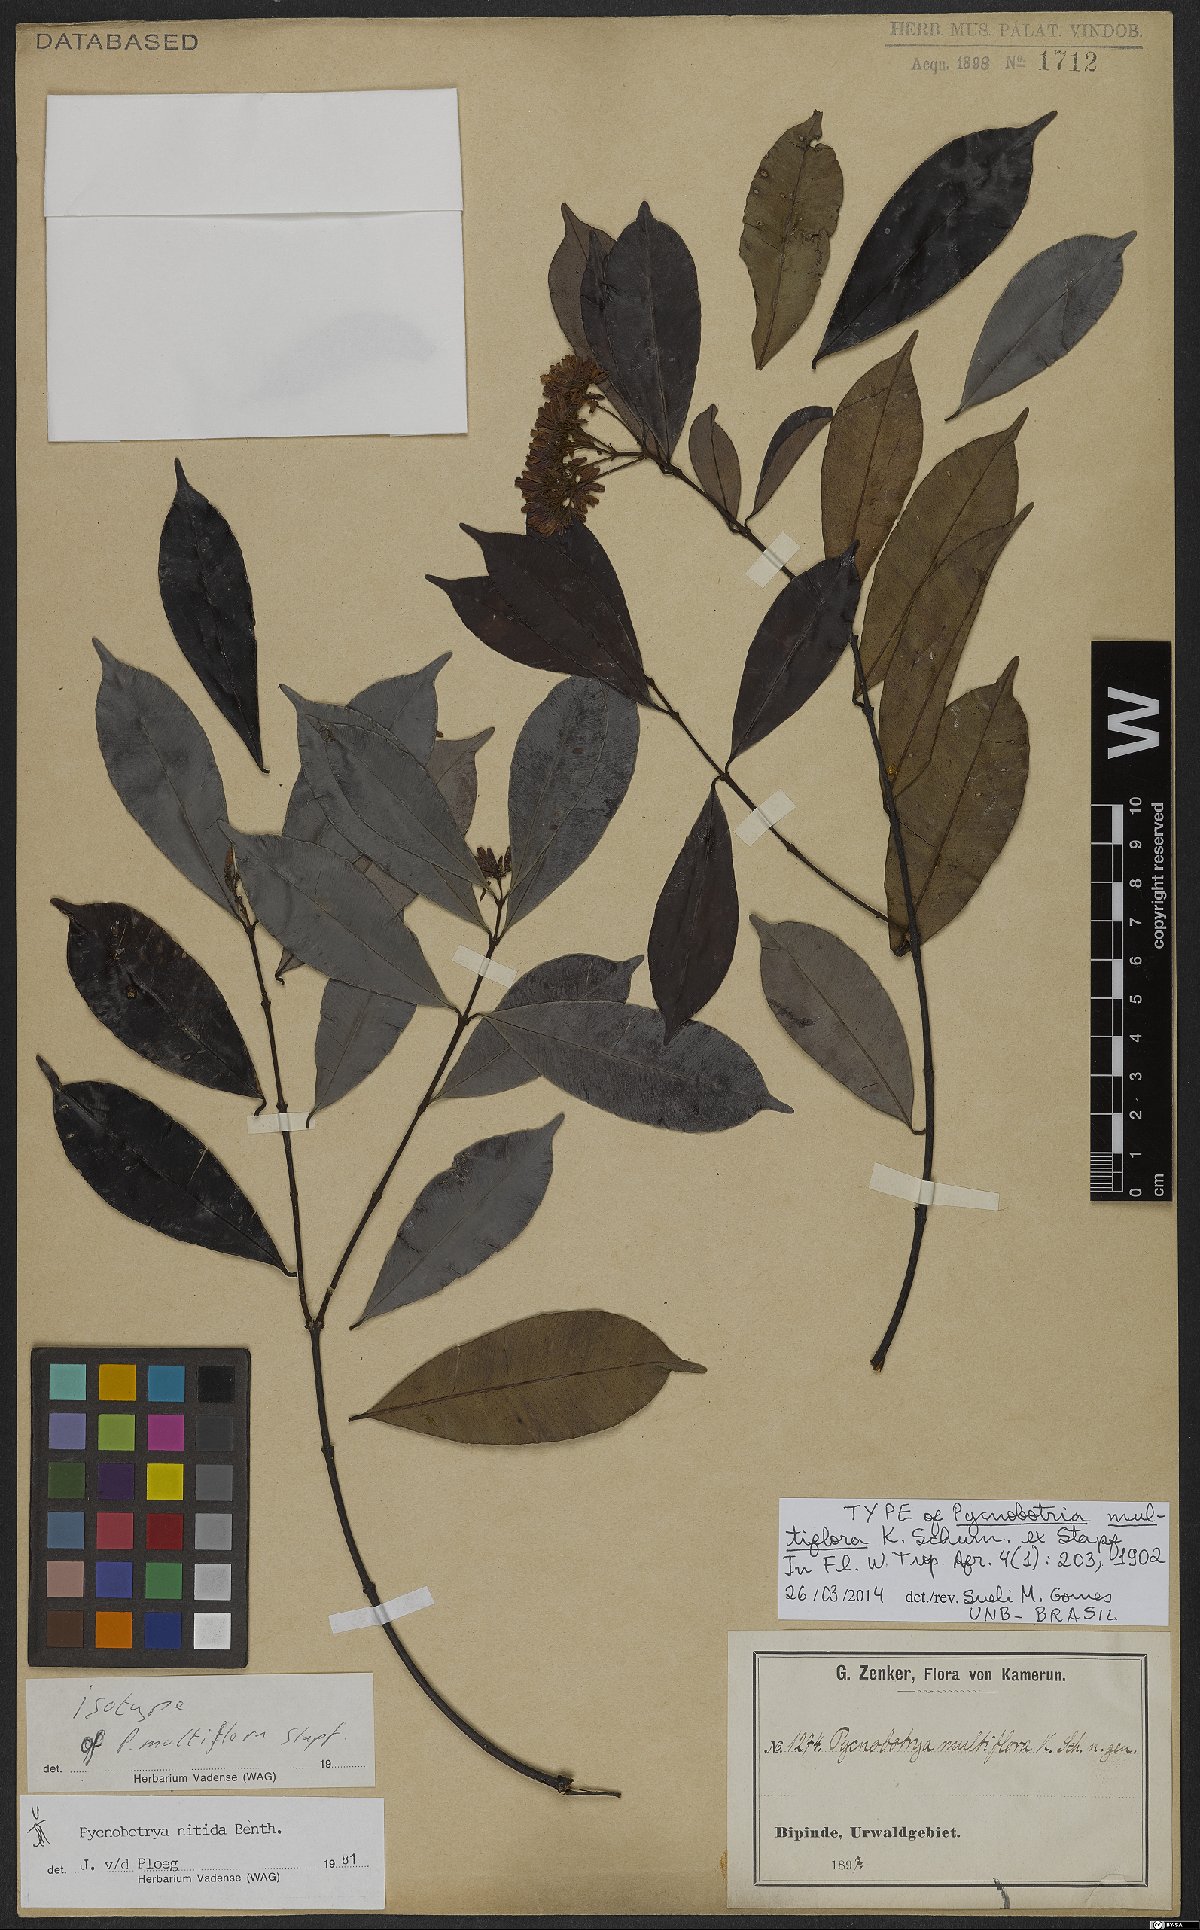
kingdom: Plantae
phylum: Tracheophyta
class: Magnoliopsida
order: Gentianales
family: Apocynaceae
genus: Pycnobotrya
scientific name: Pycnobotrya nitida
